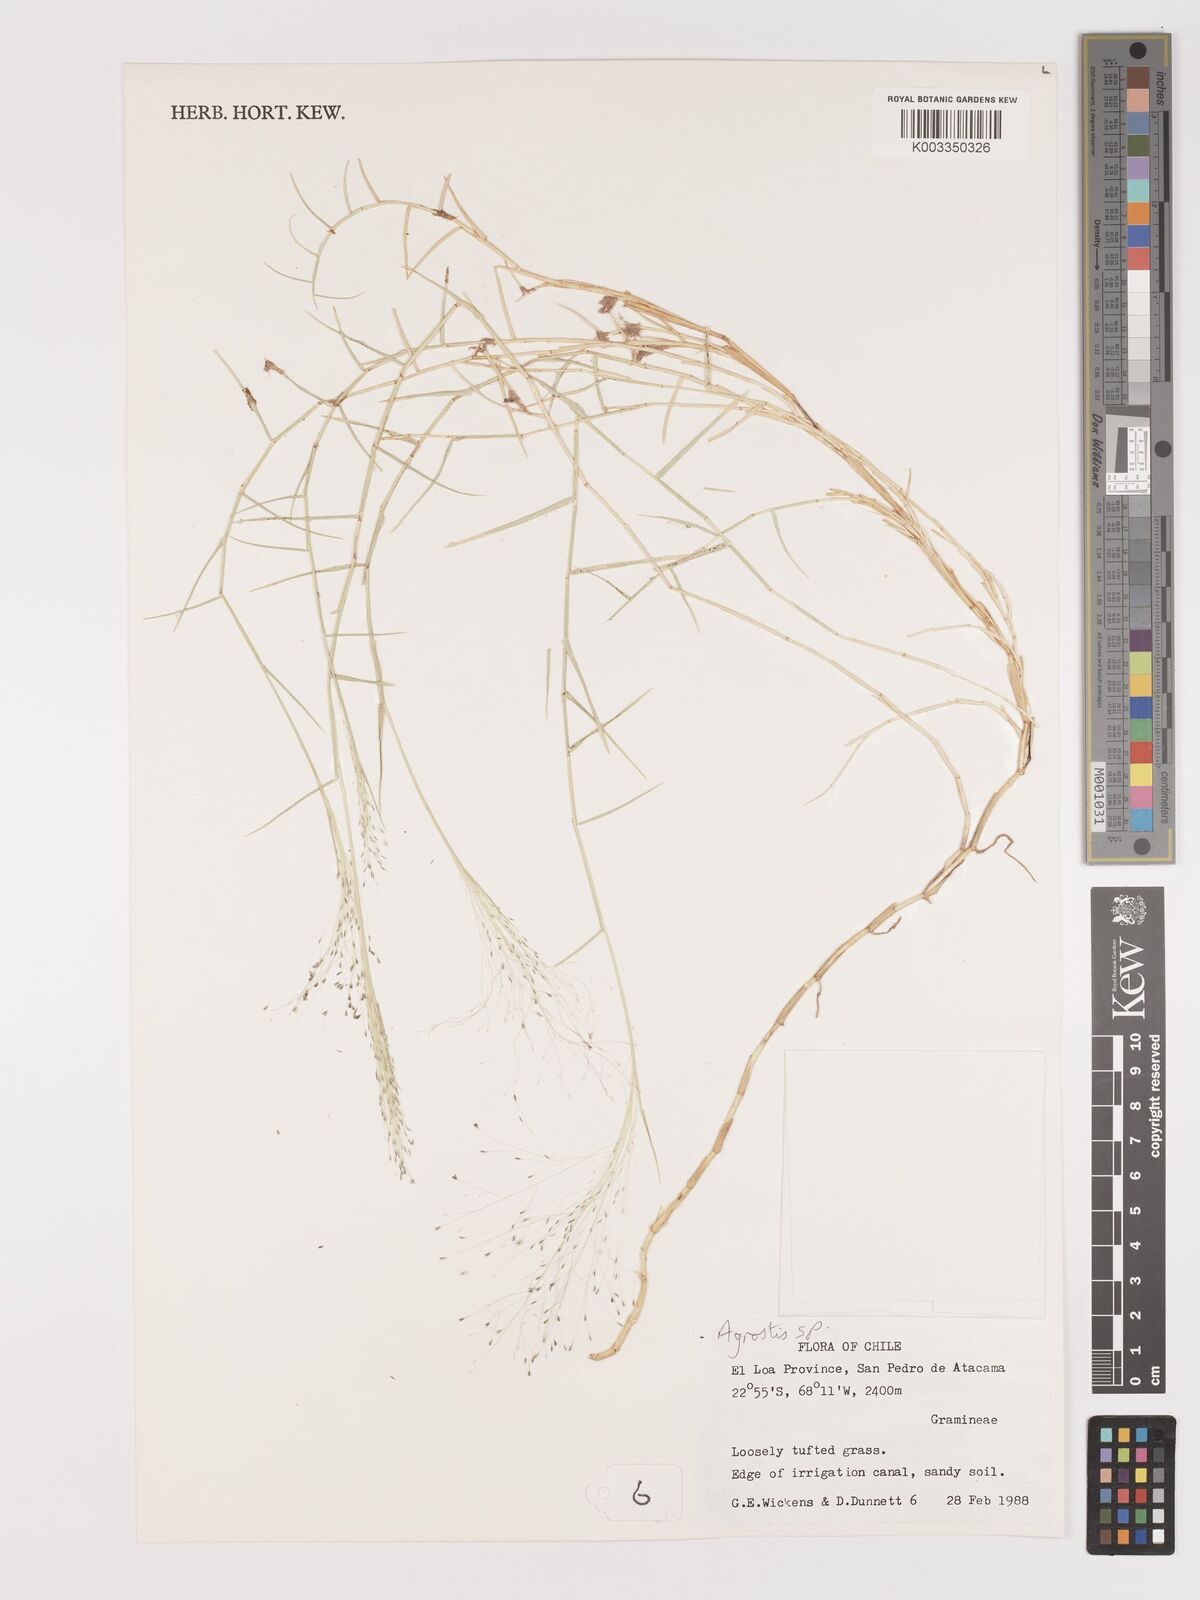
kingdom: Plantae
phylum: Tracheophyta
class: Liliopsida
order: Poales
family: Poaceae
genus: Agrostis
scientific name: Agrostis
